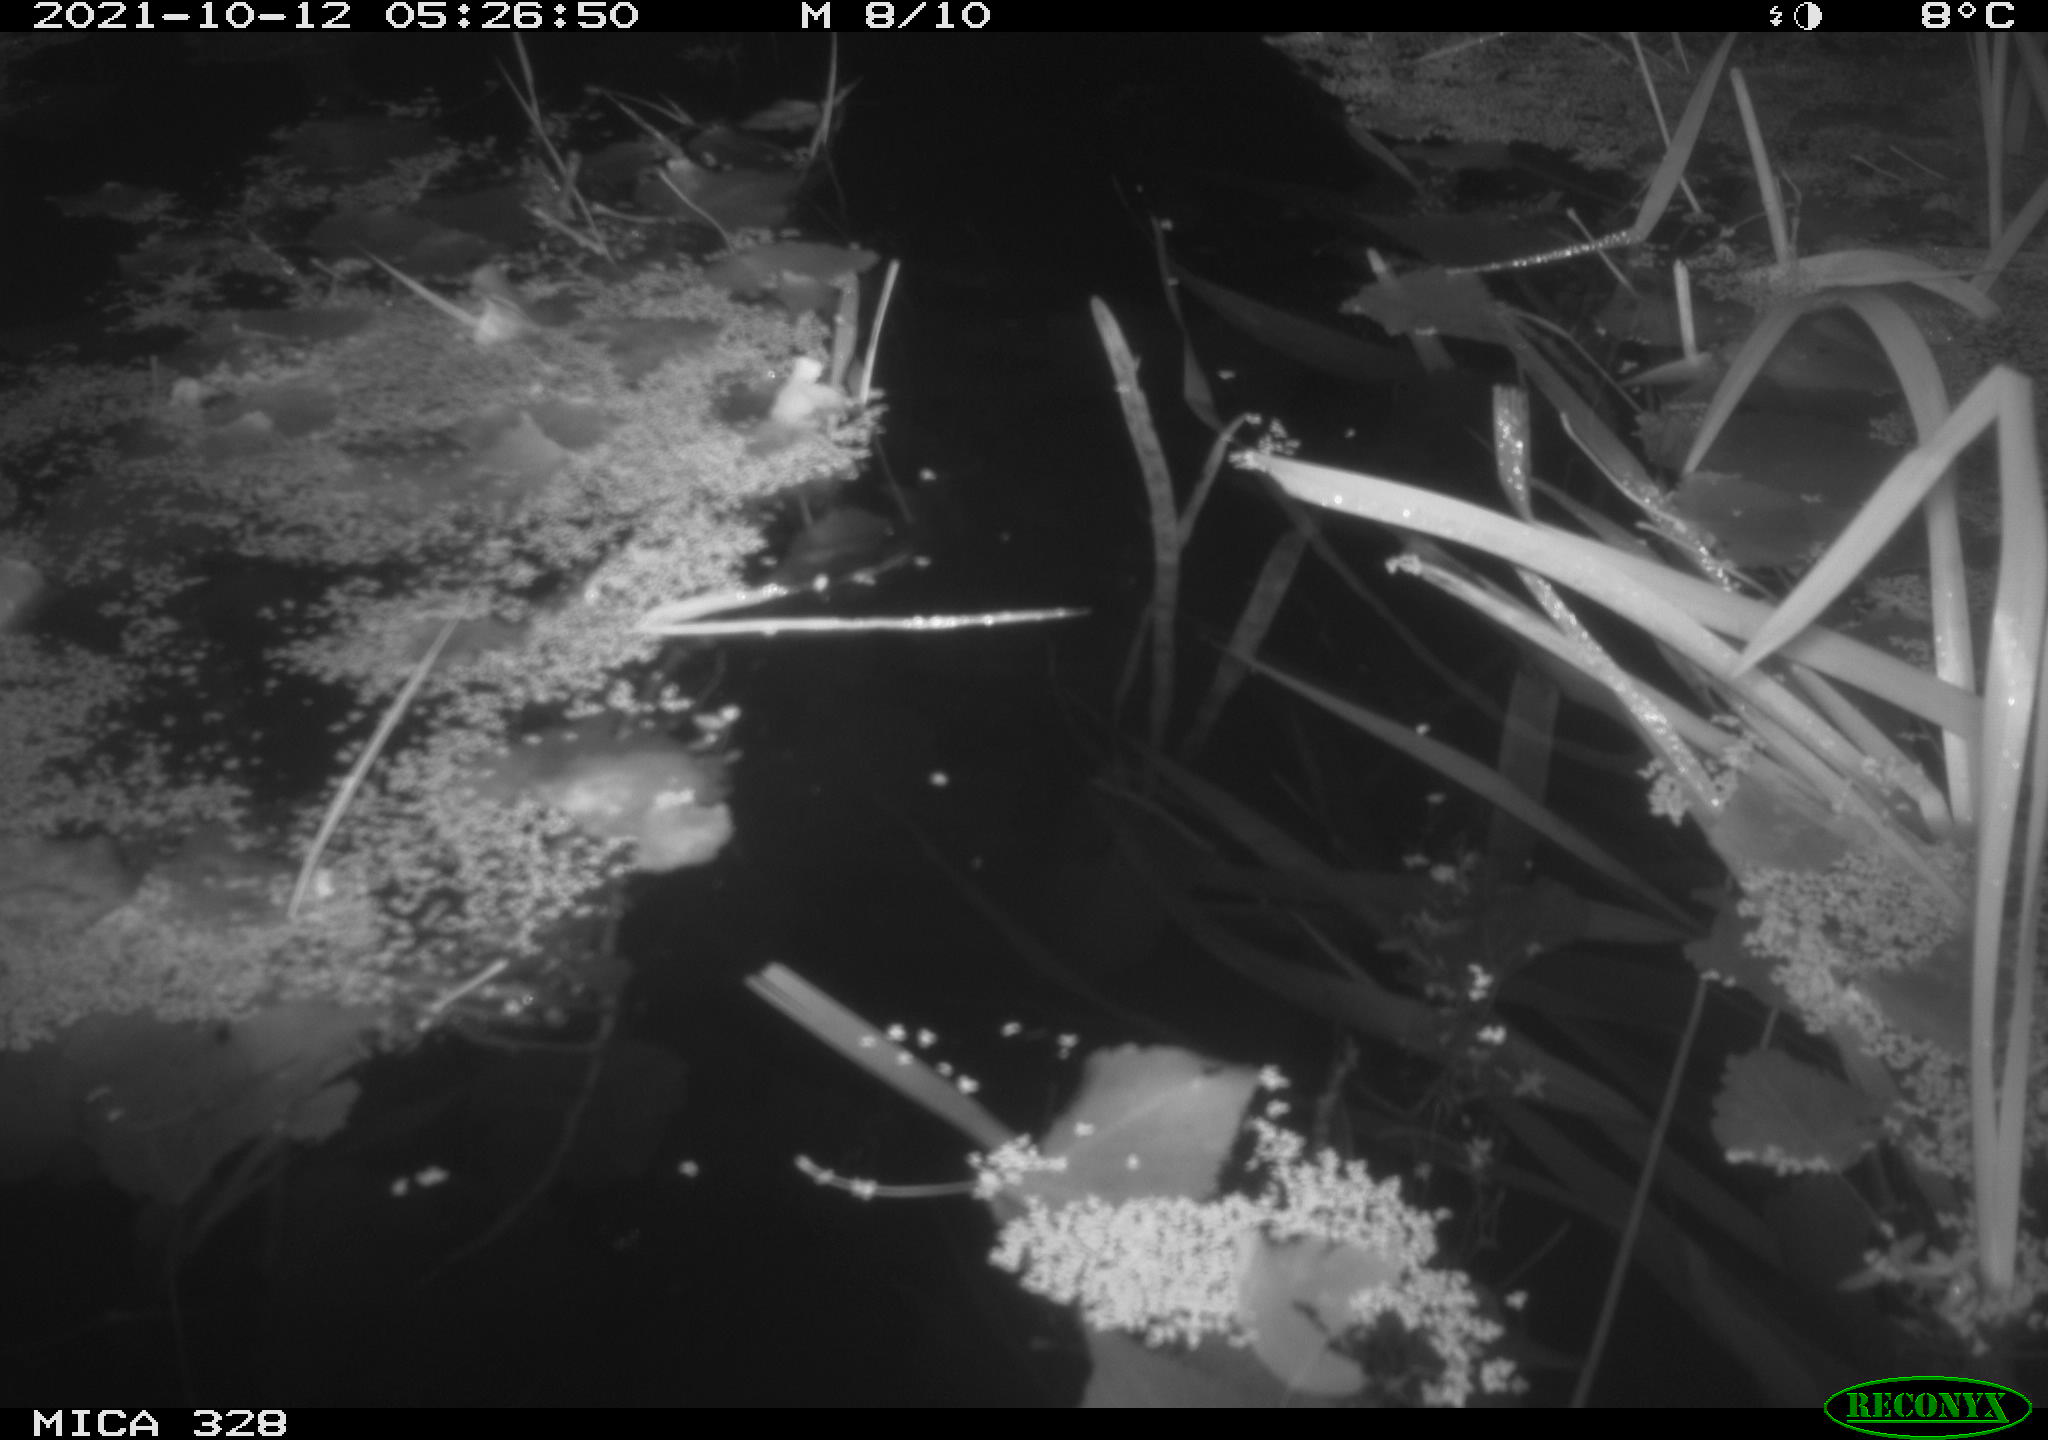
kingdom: Animalia
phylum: Chordata
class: Mammalia
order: Rodentia
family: Cricetidae
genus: Ondatra
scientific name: Ondatra zibethicus
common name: Muskrat
